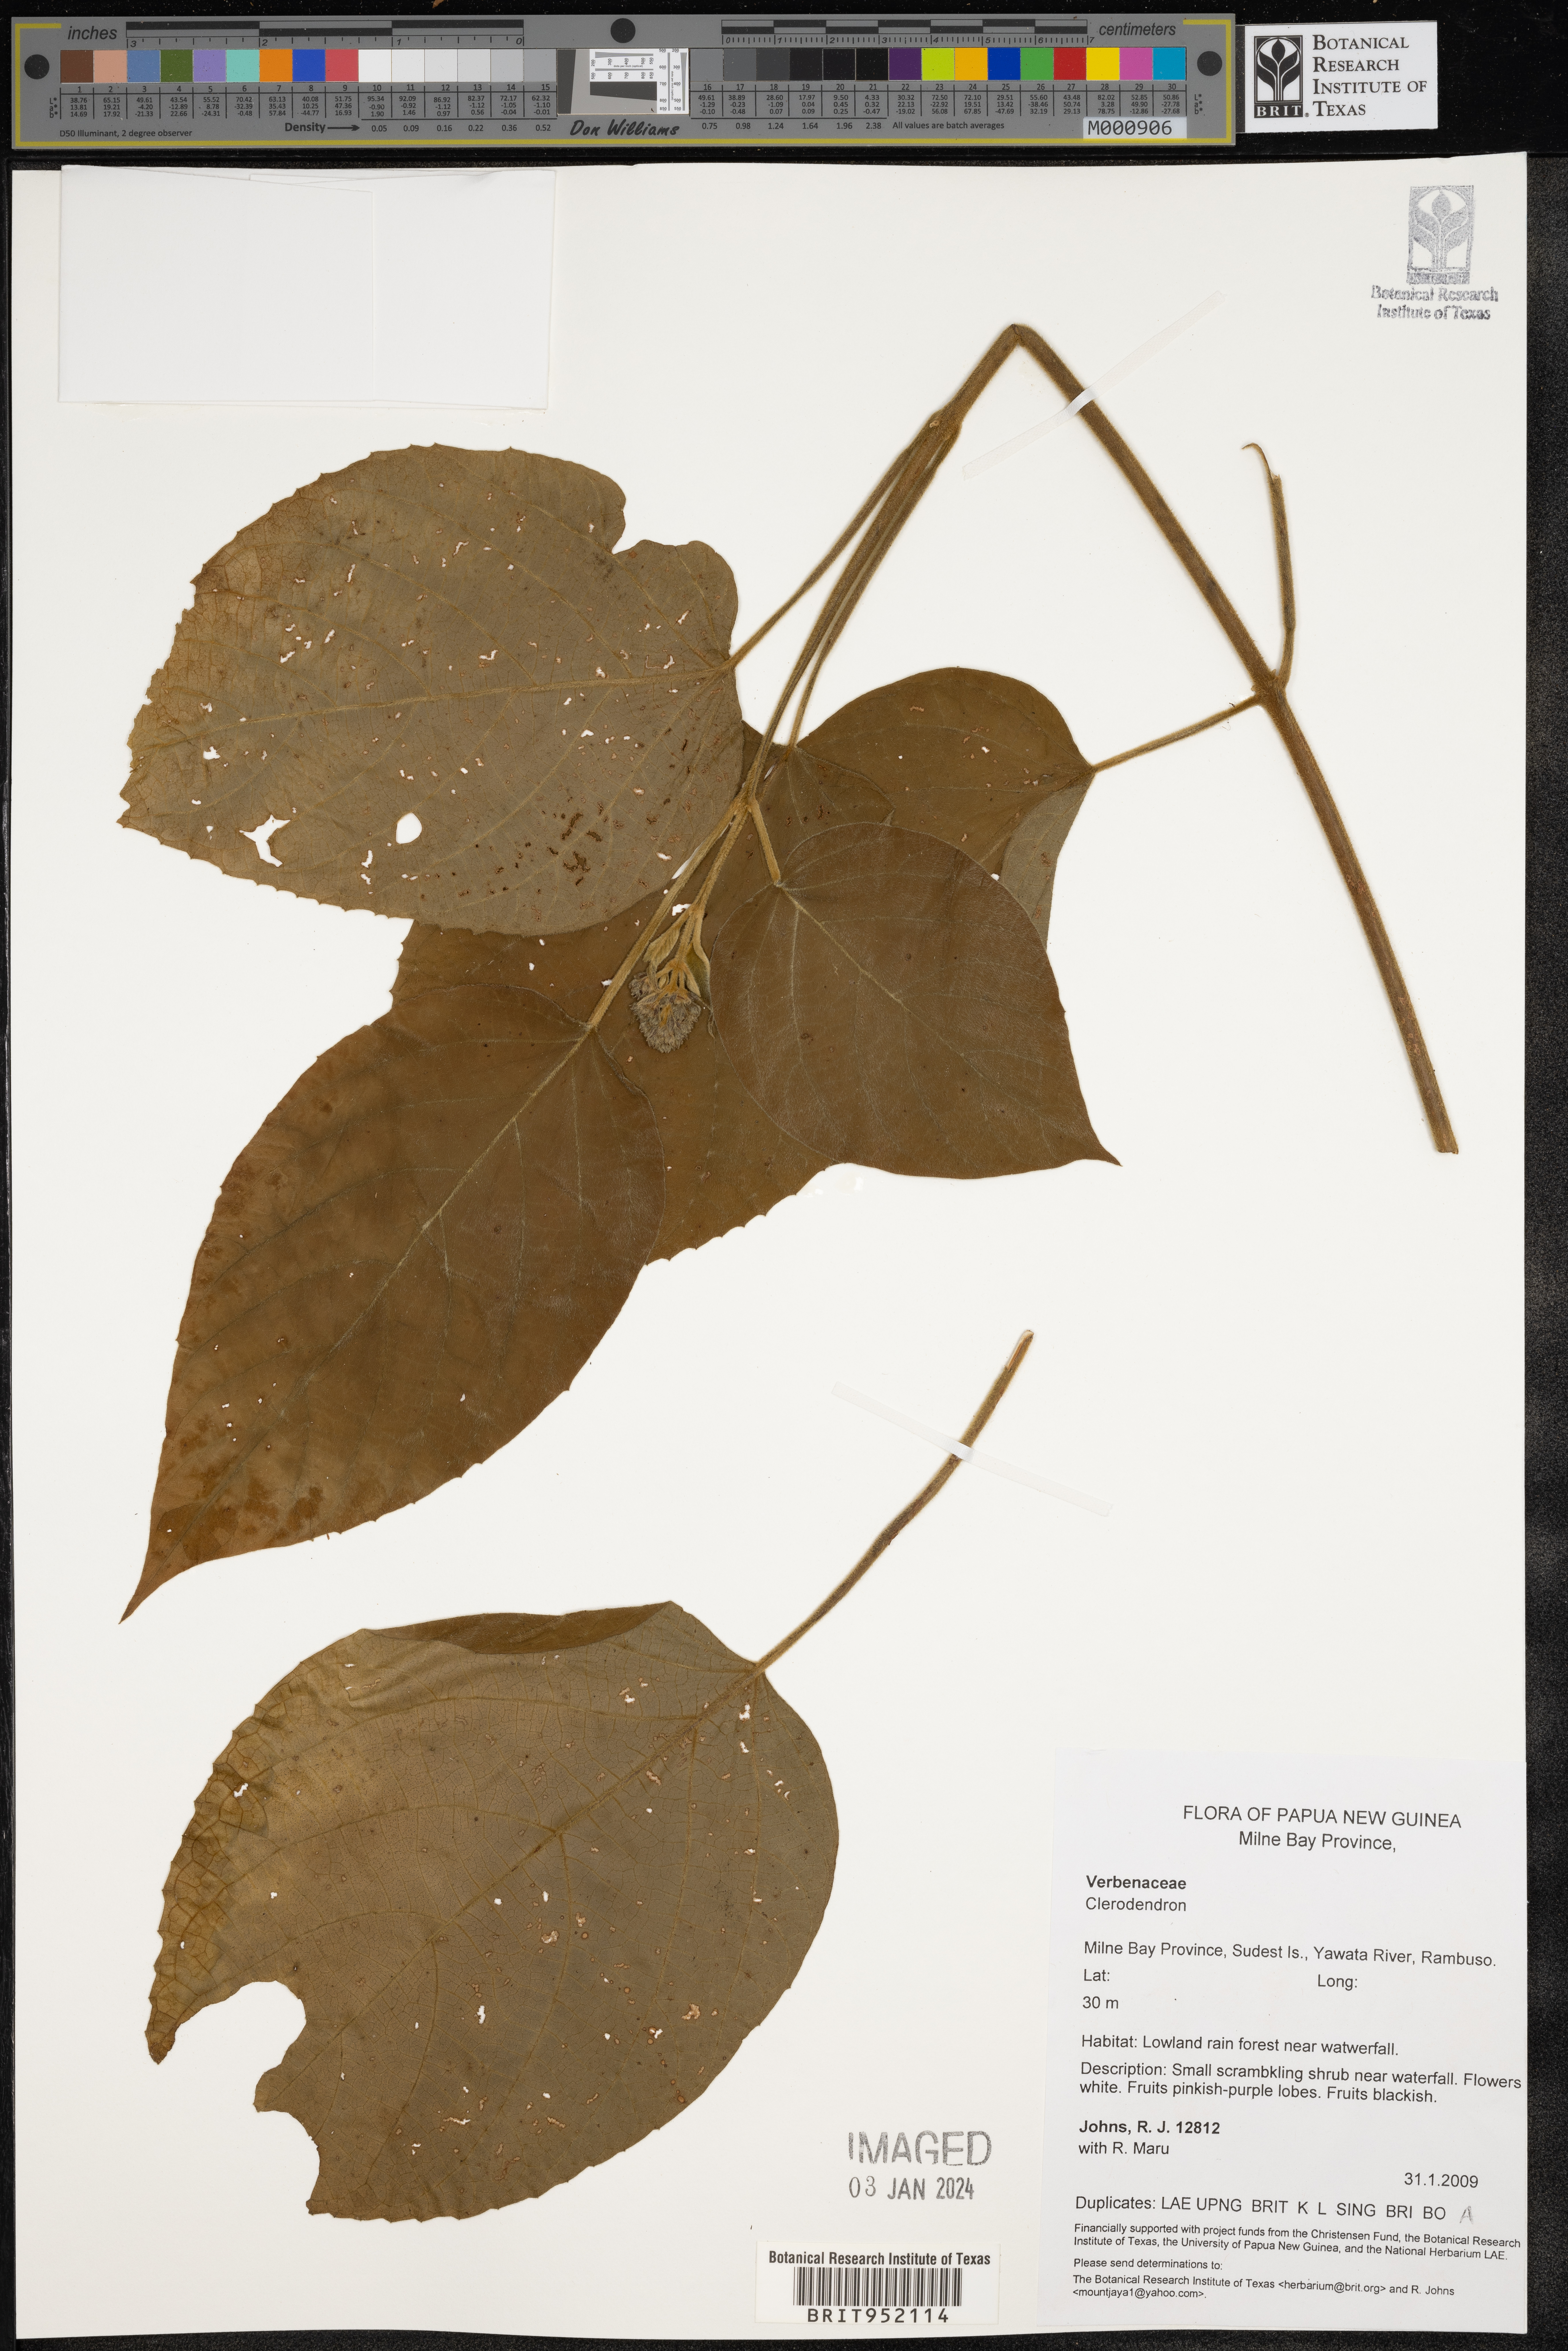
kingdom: Plantae
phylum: Tracheophyta
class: Magnoliopsida
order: Lamiales
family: Lamiaceae
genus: Clerodendrum
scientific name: Clerodendrum
